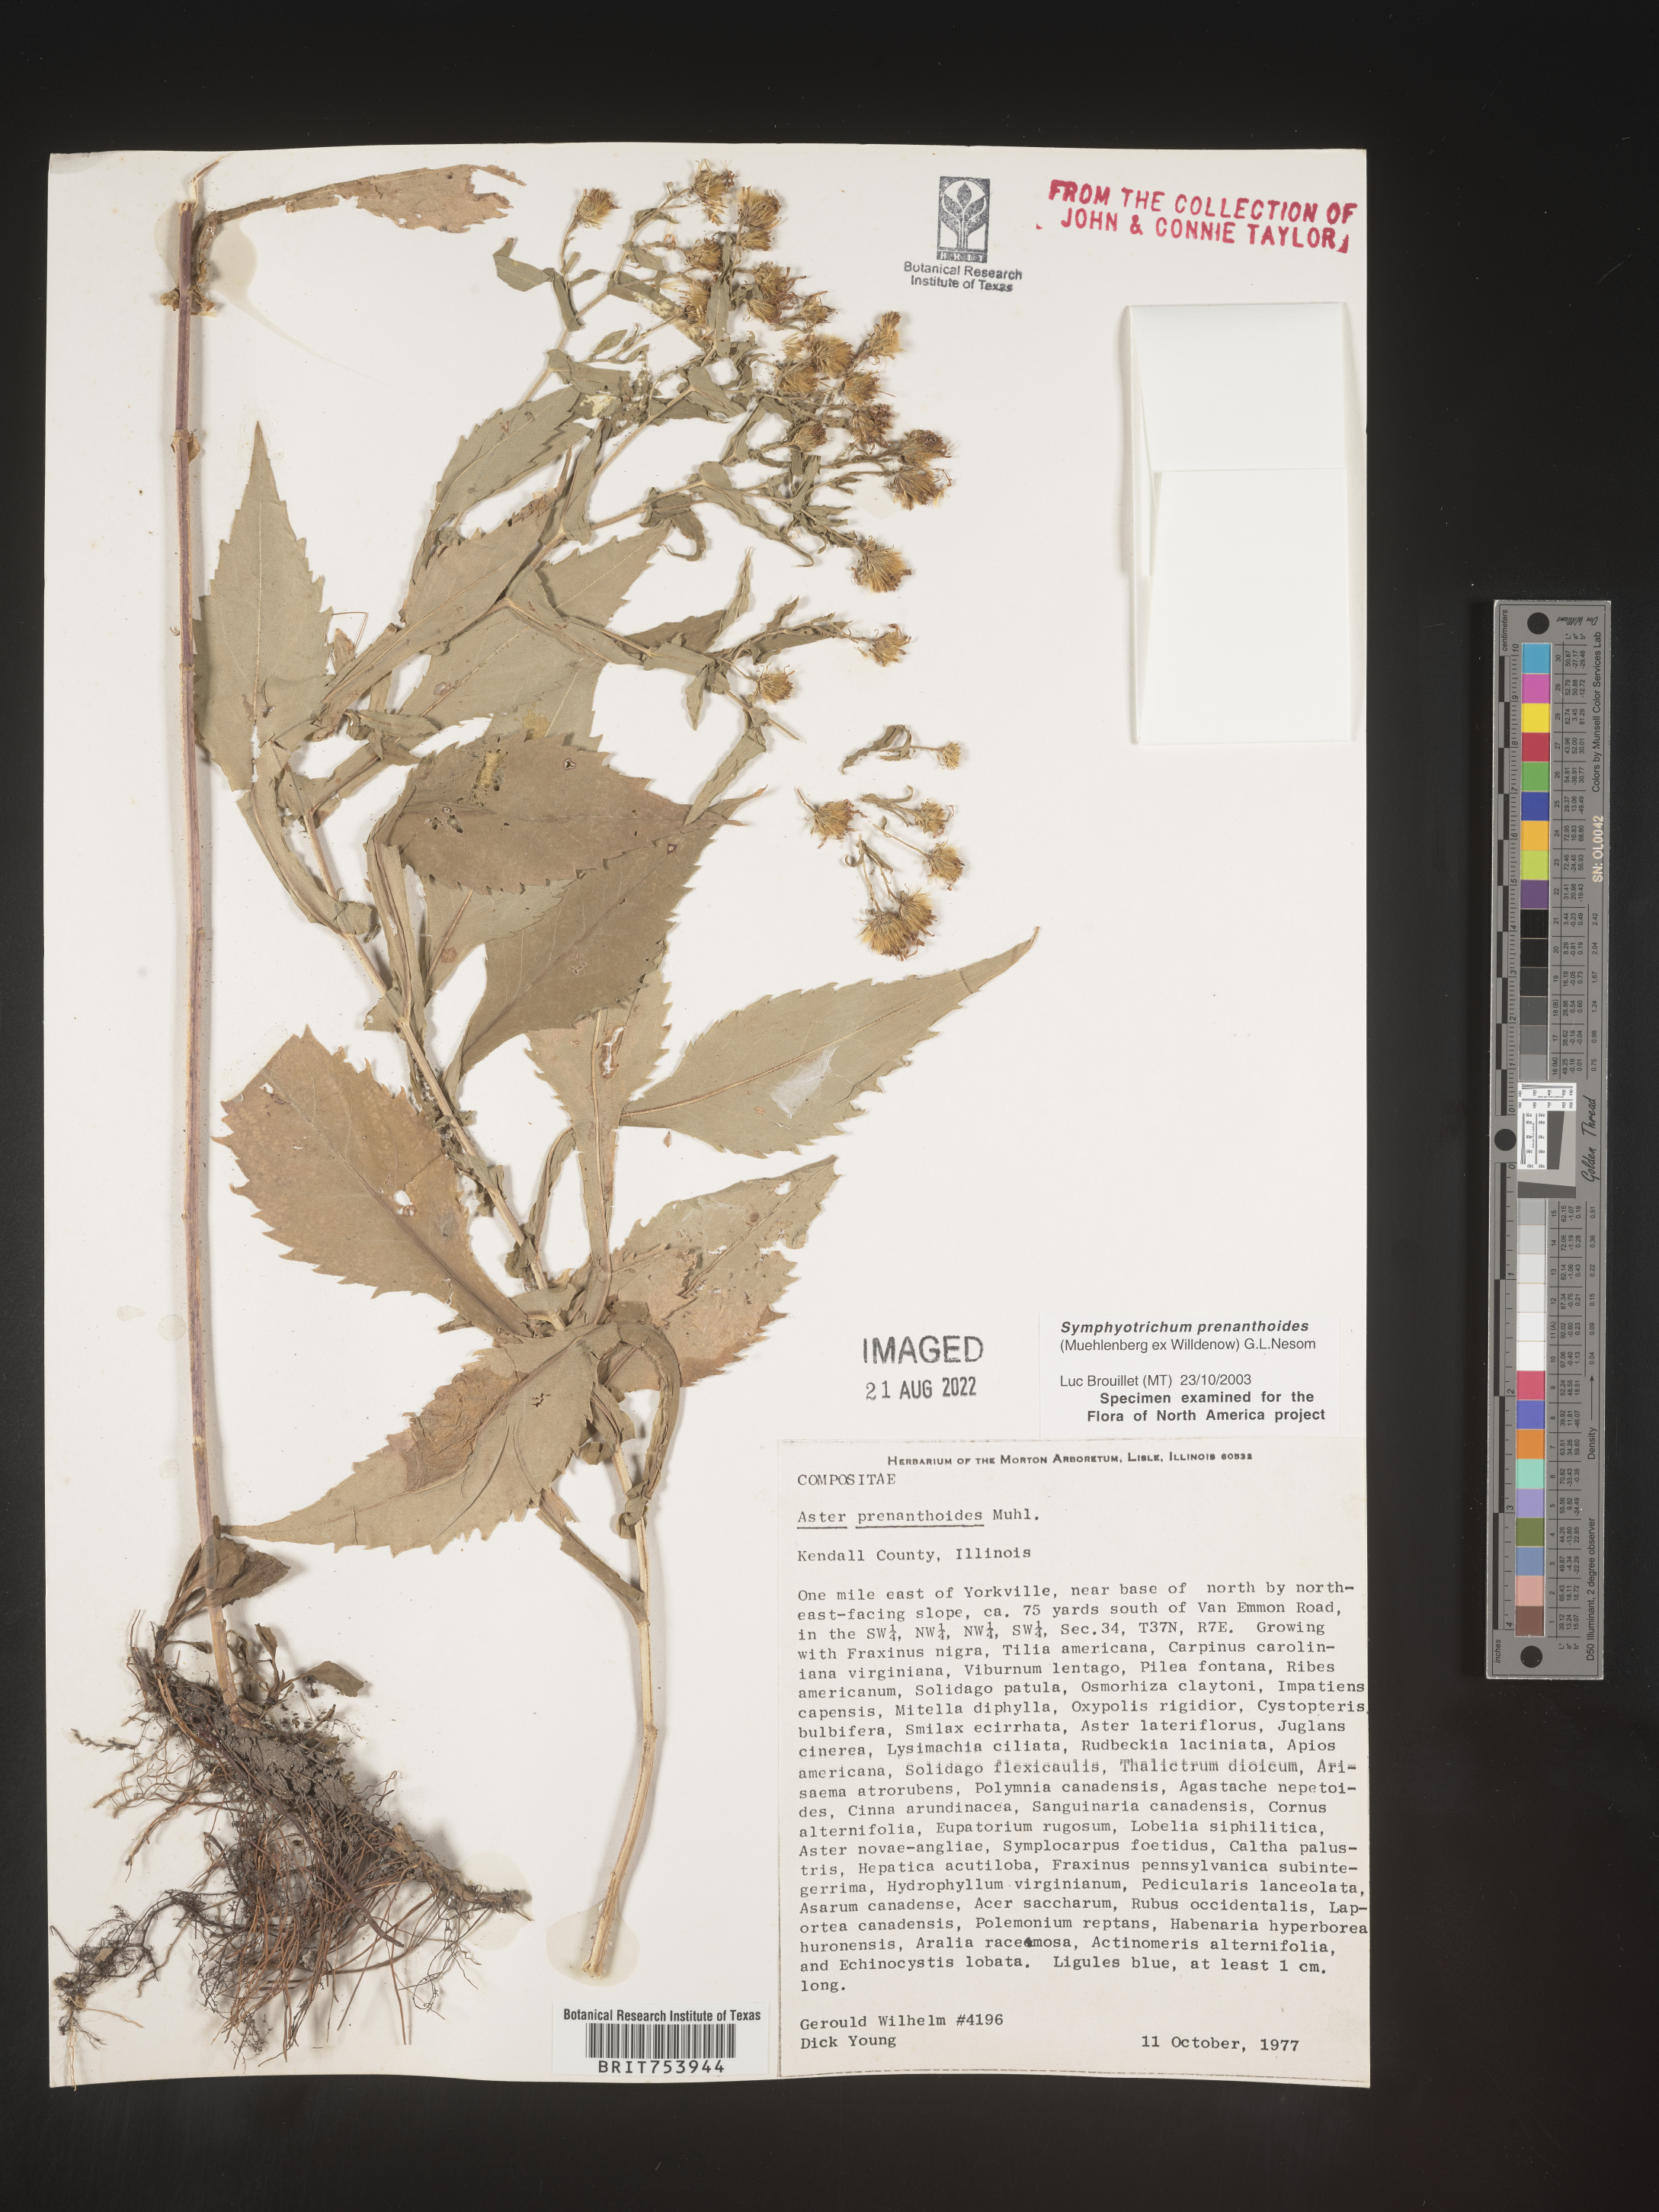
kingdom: Plantae
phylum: Tracheophyta
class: Magnoliopsida
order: Asterales
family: Asteraceae
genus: Symphyotrichum
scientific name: Symphyotrichum prenanthoides
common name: Crooked-stem aster
